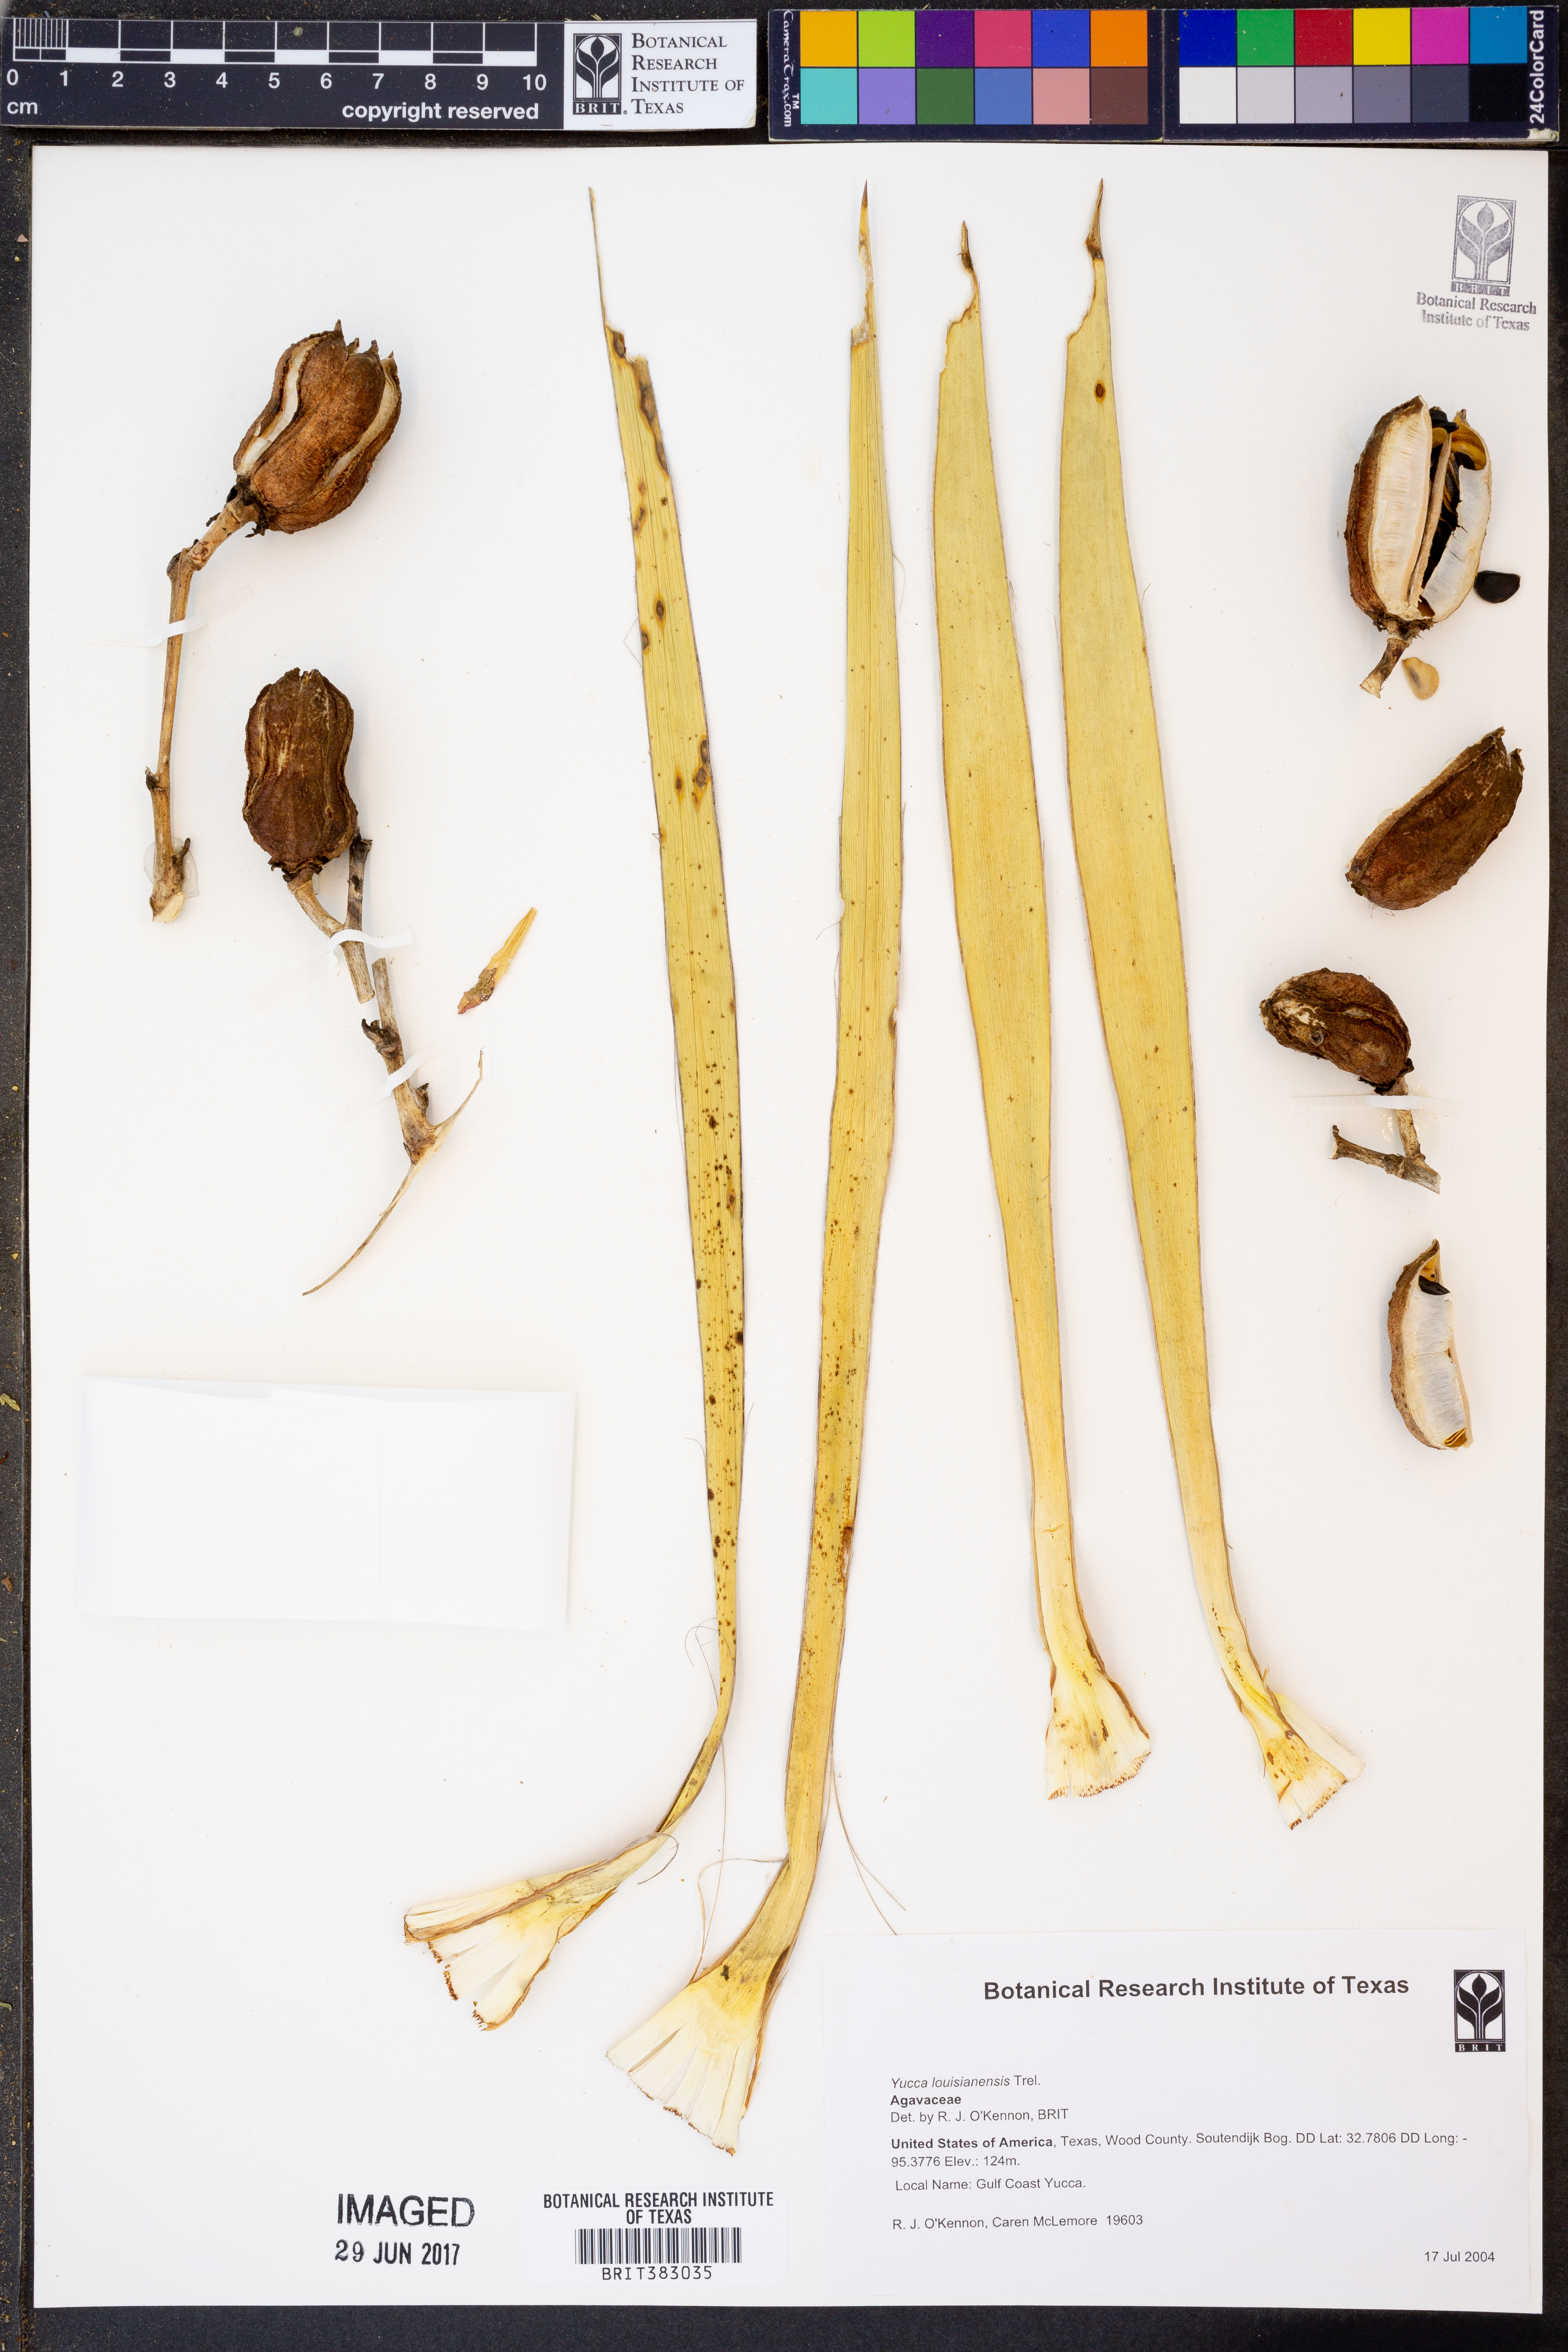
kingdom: Plantae
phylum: Tracheophyta
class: Liliopsida
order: Asparagales
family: Asparagaceae
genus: Yucca
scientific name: Yucca flaccida
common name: Adam's-needle
